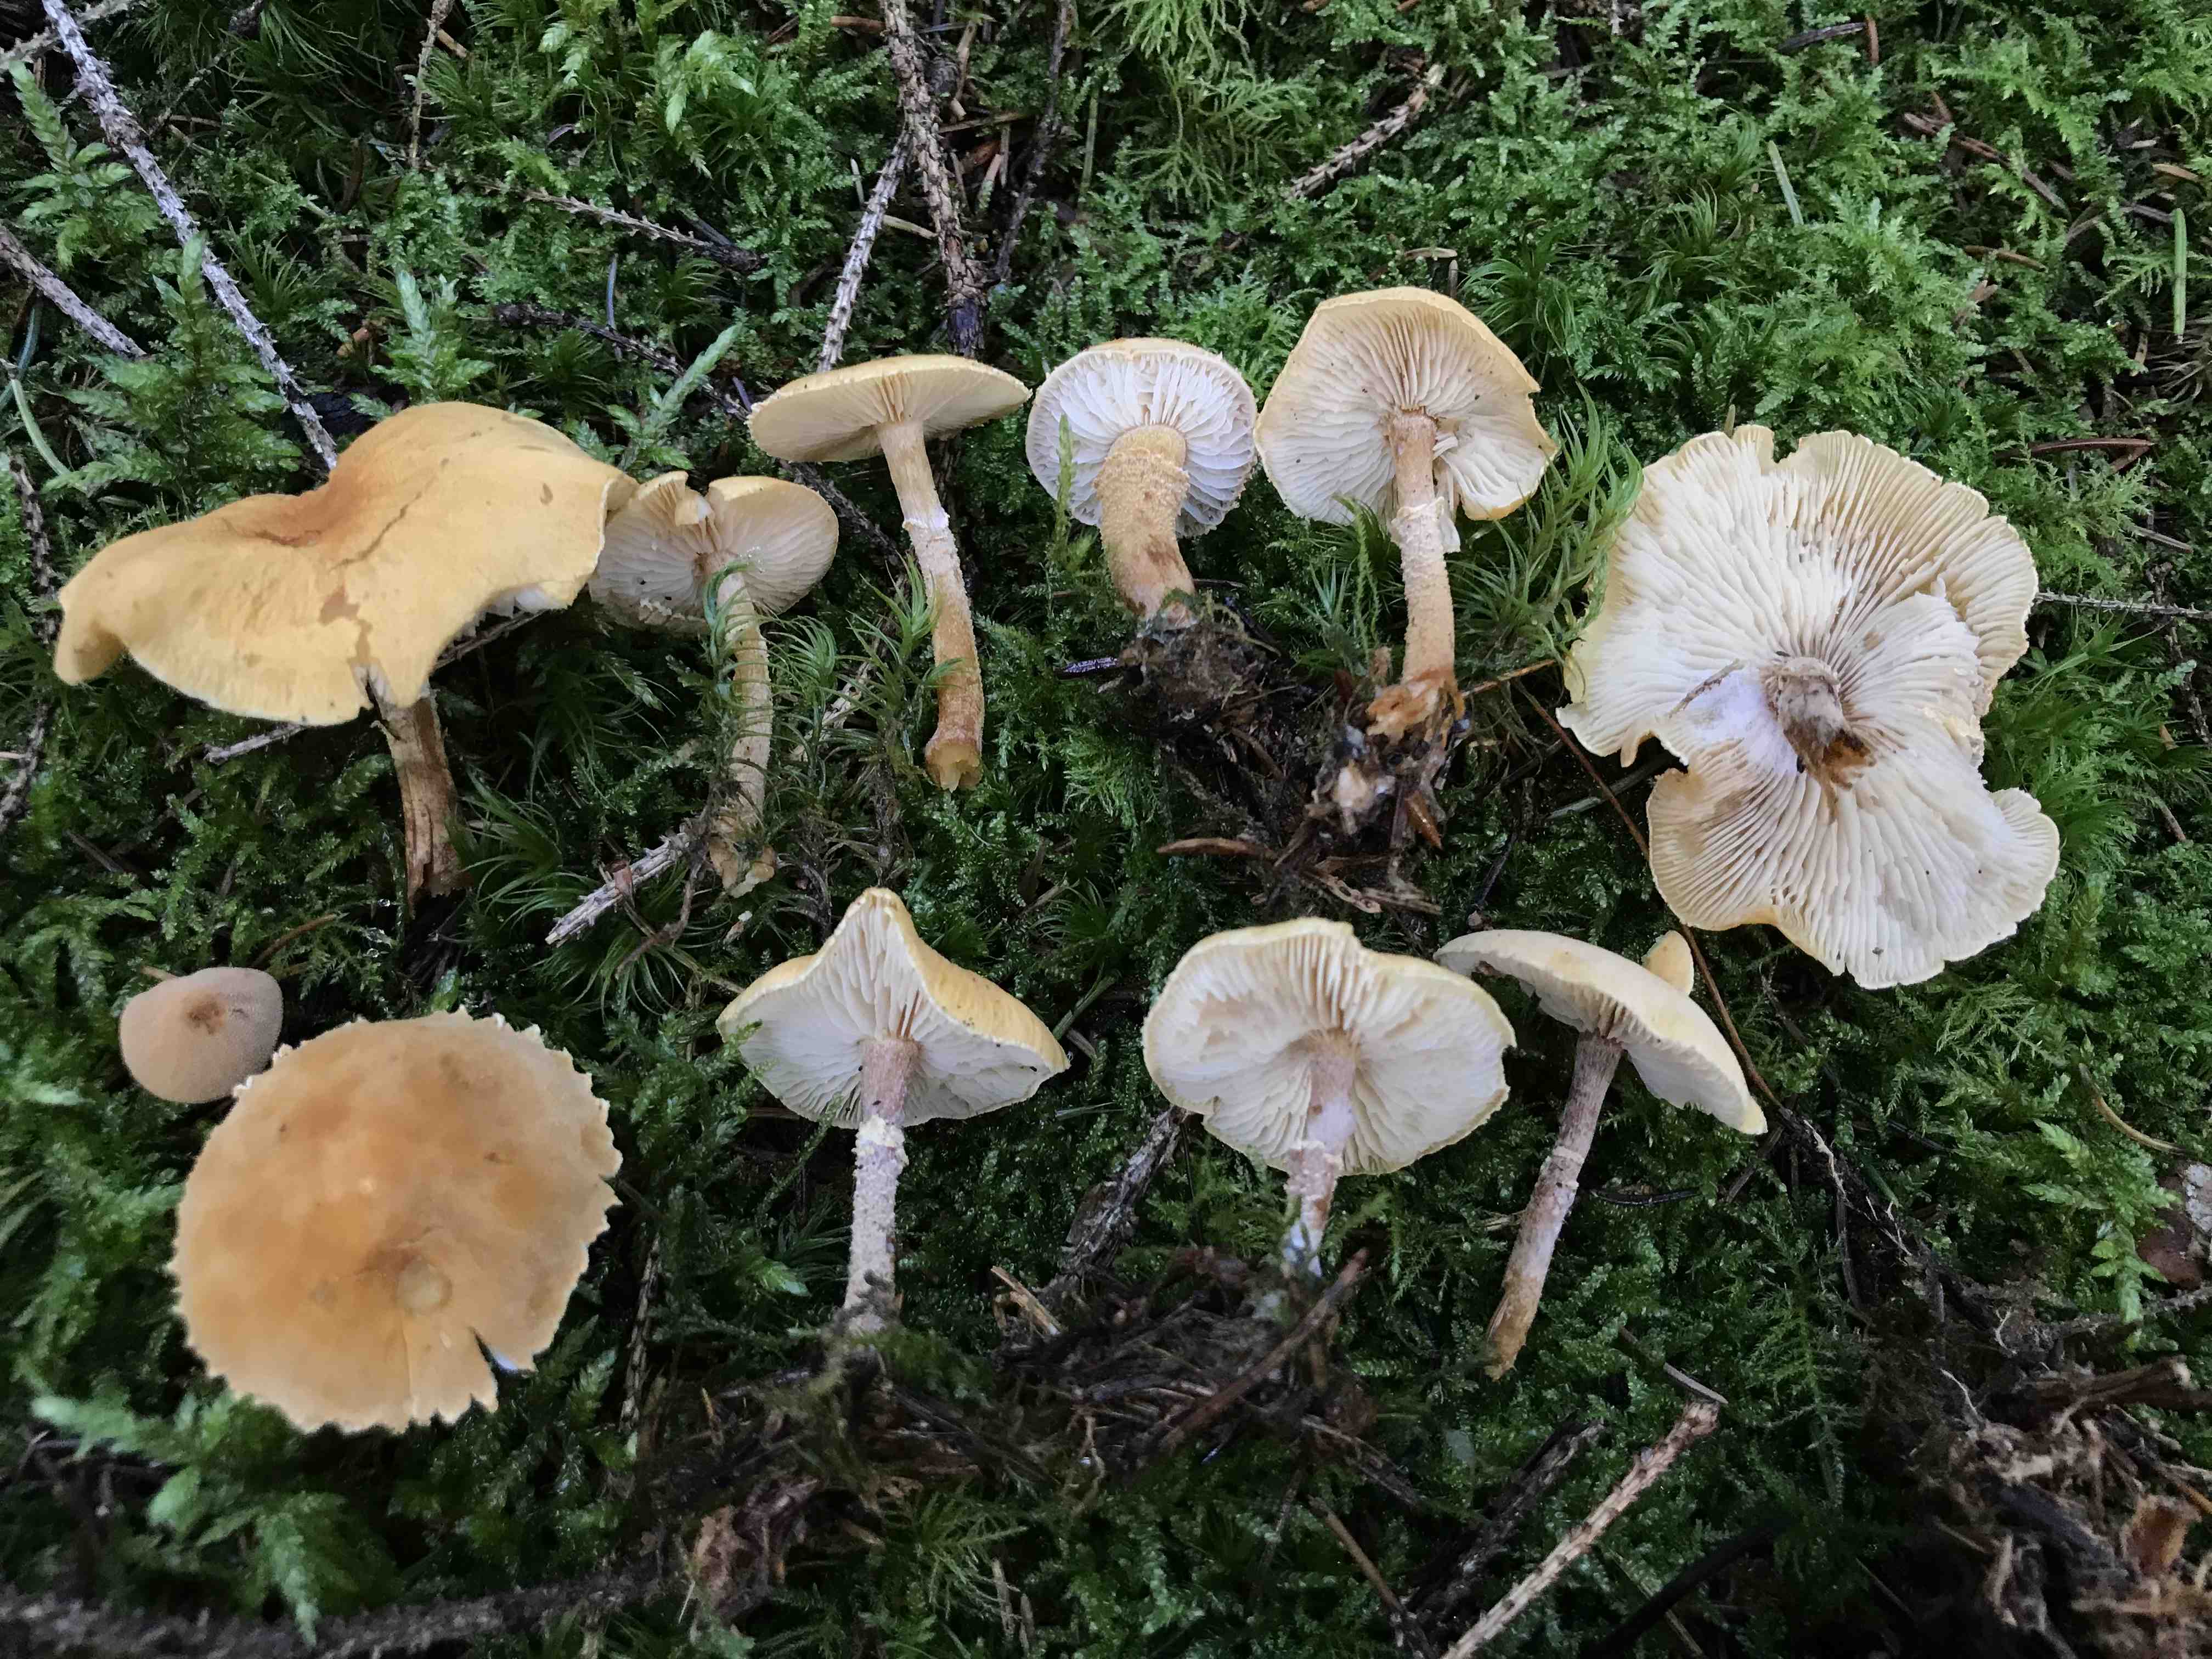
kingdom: Fungi
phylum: Basidiomycota
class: Agaricomycetes
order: Agaricales
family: Tricholomataceae
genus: Cystoderma
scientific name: Cystoderma amianthinum
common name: okkergul grynhat
